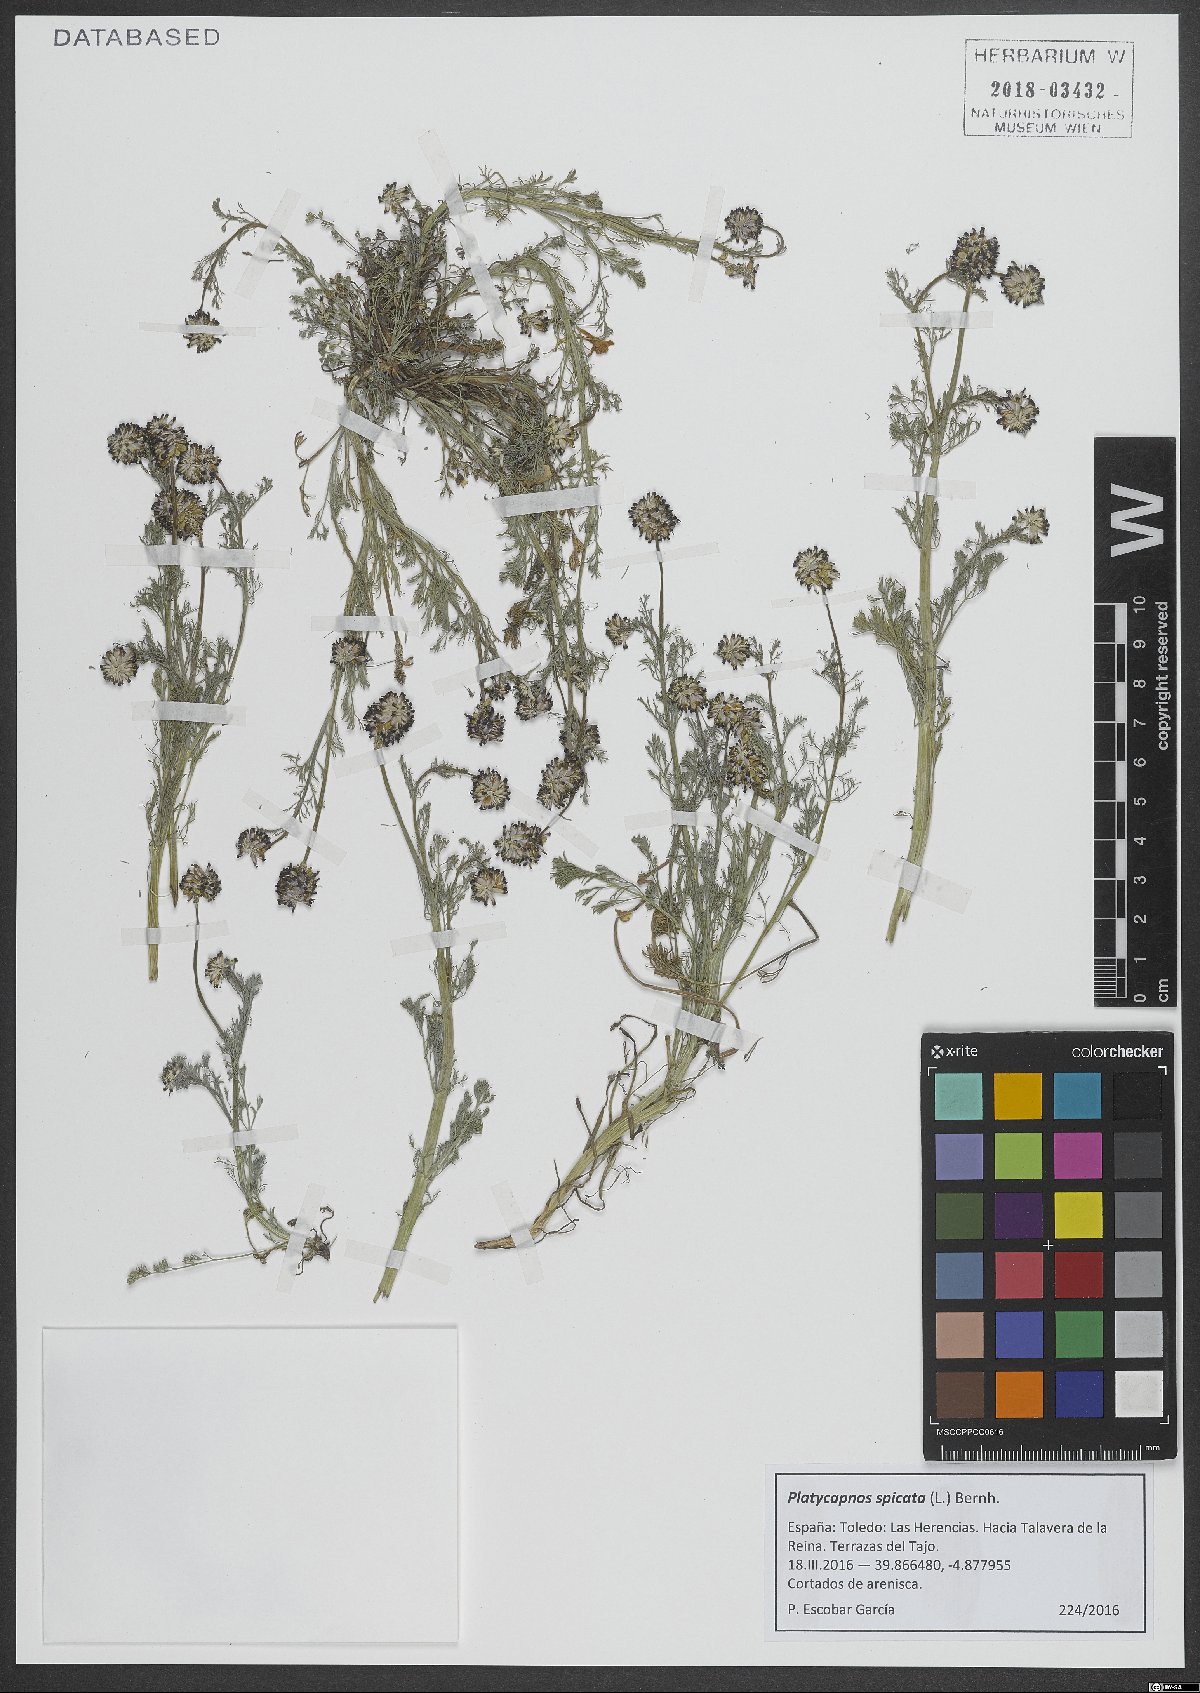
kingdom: Plantae
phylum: Tracheophyta
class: Magnoliopsida
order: Ranunculales
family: Papaveraceae
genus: Platycapnos
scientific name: Platycapnos spicata
